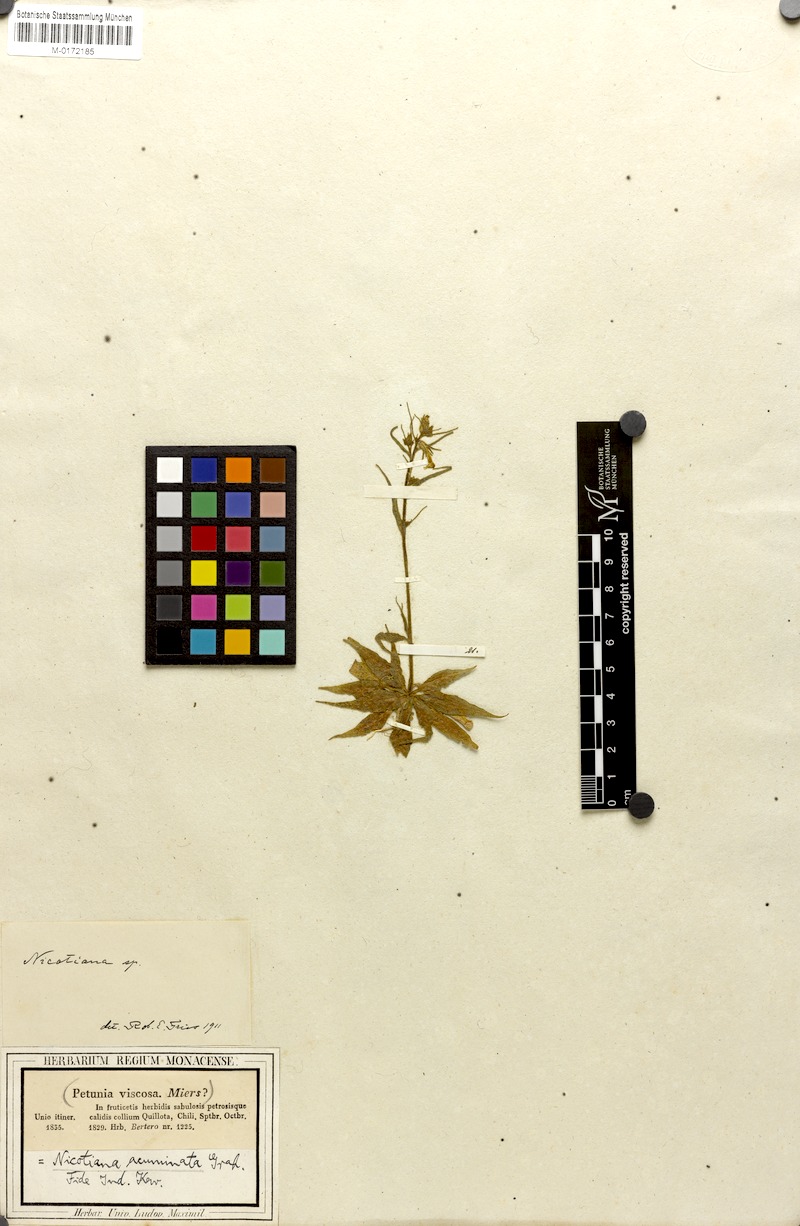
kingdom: Plantae
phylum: Tracheophyta
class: Magnoliopsida
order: Solanales
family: Solanaceae
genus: Nicotiana
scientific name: Nicotiana acuminata
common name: Manyflower tobacco
